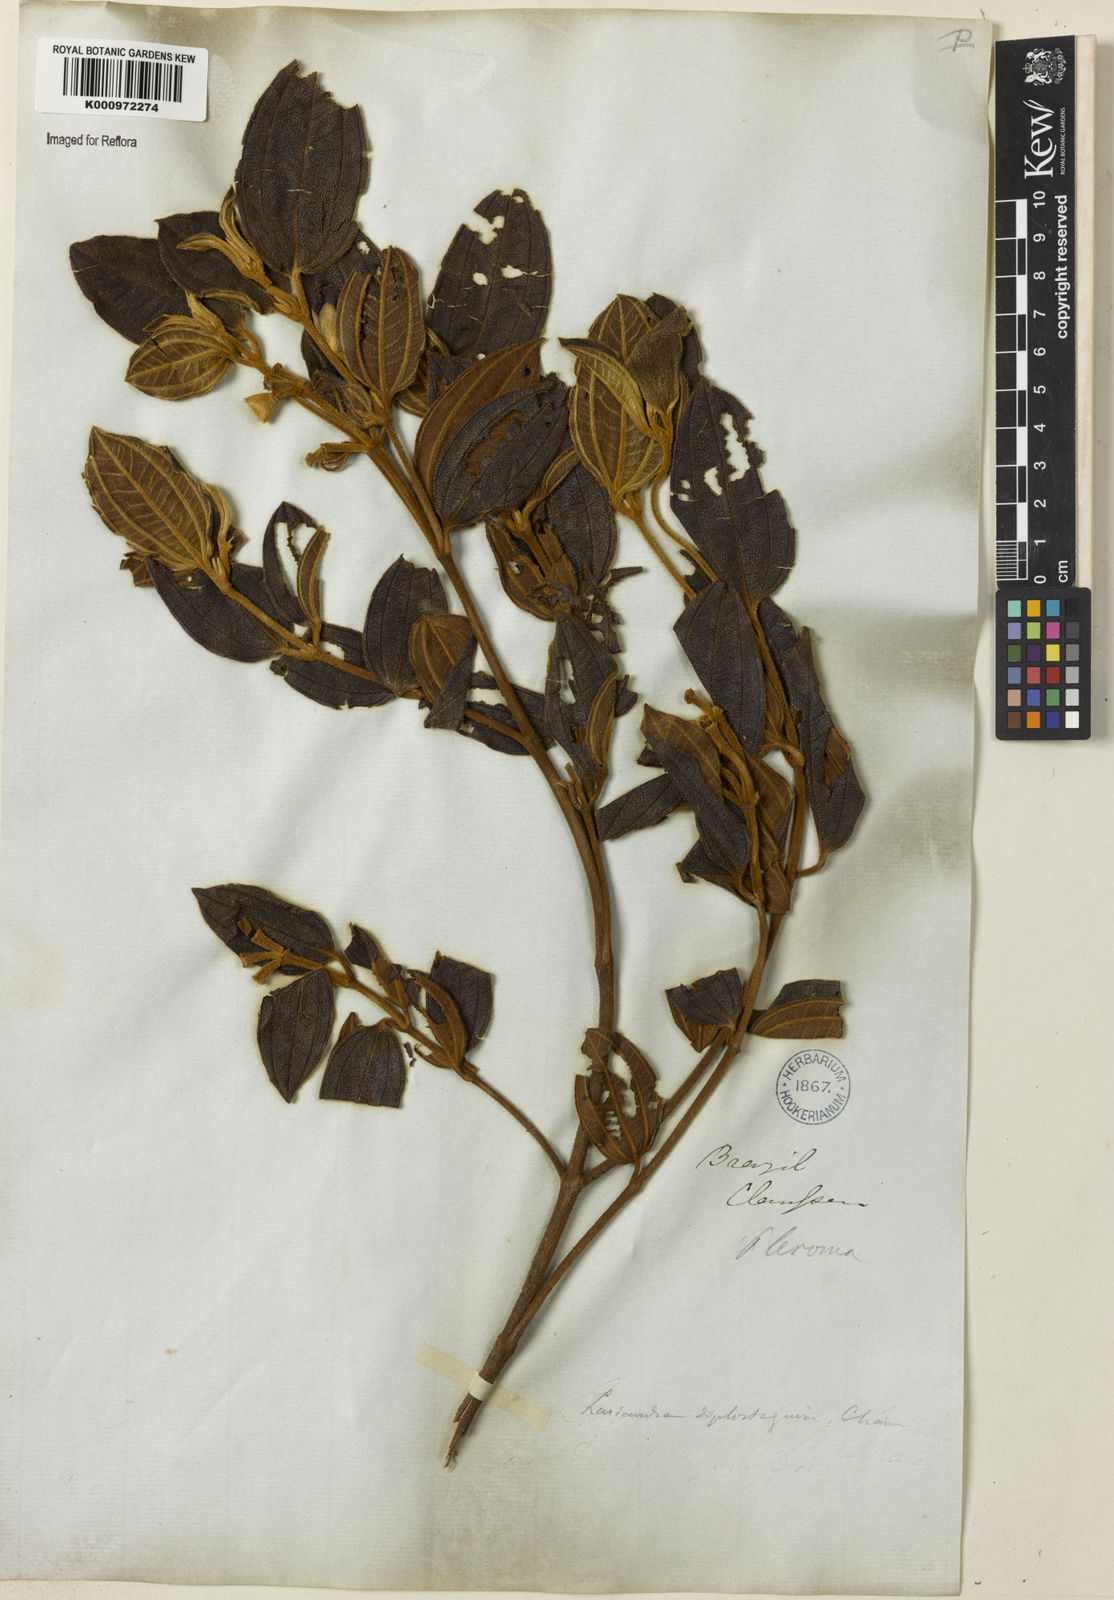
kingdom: Plantae
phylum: Tracheophyta
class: Magnoliopsida
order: Myrtales
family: Melastomataceae
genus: Pleroma
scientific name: Pleroma canescens
